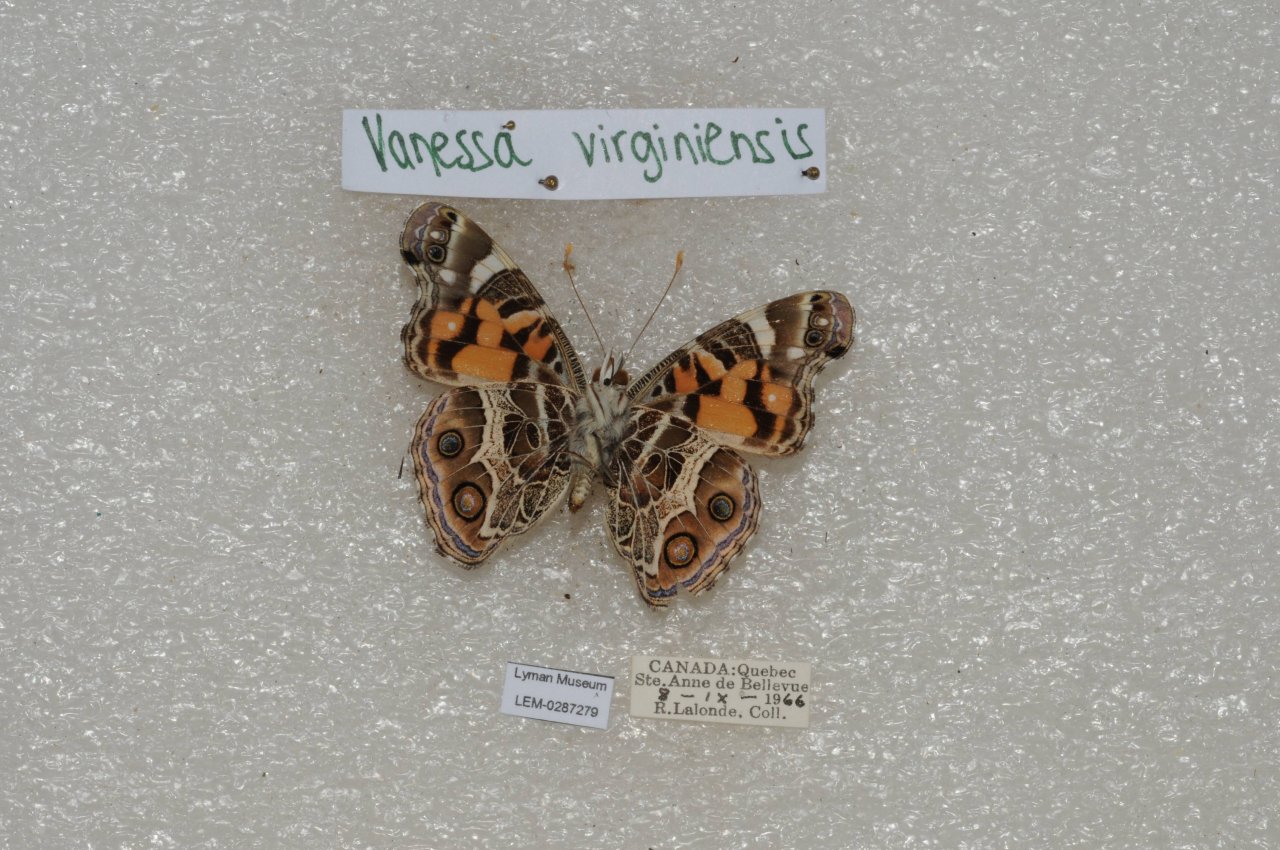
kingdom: Animalia
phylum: Arthropoda
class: Insecta
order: Lepidoptera
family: Nymphalidae
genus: Vanessa
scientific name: Vanessa virginiensis
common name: American Lady
